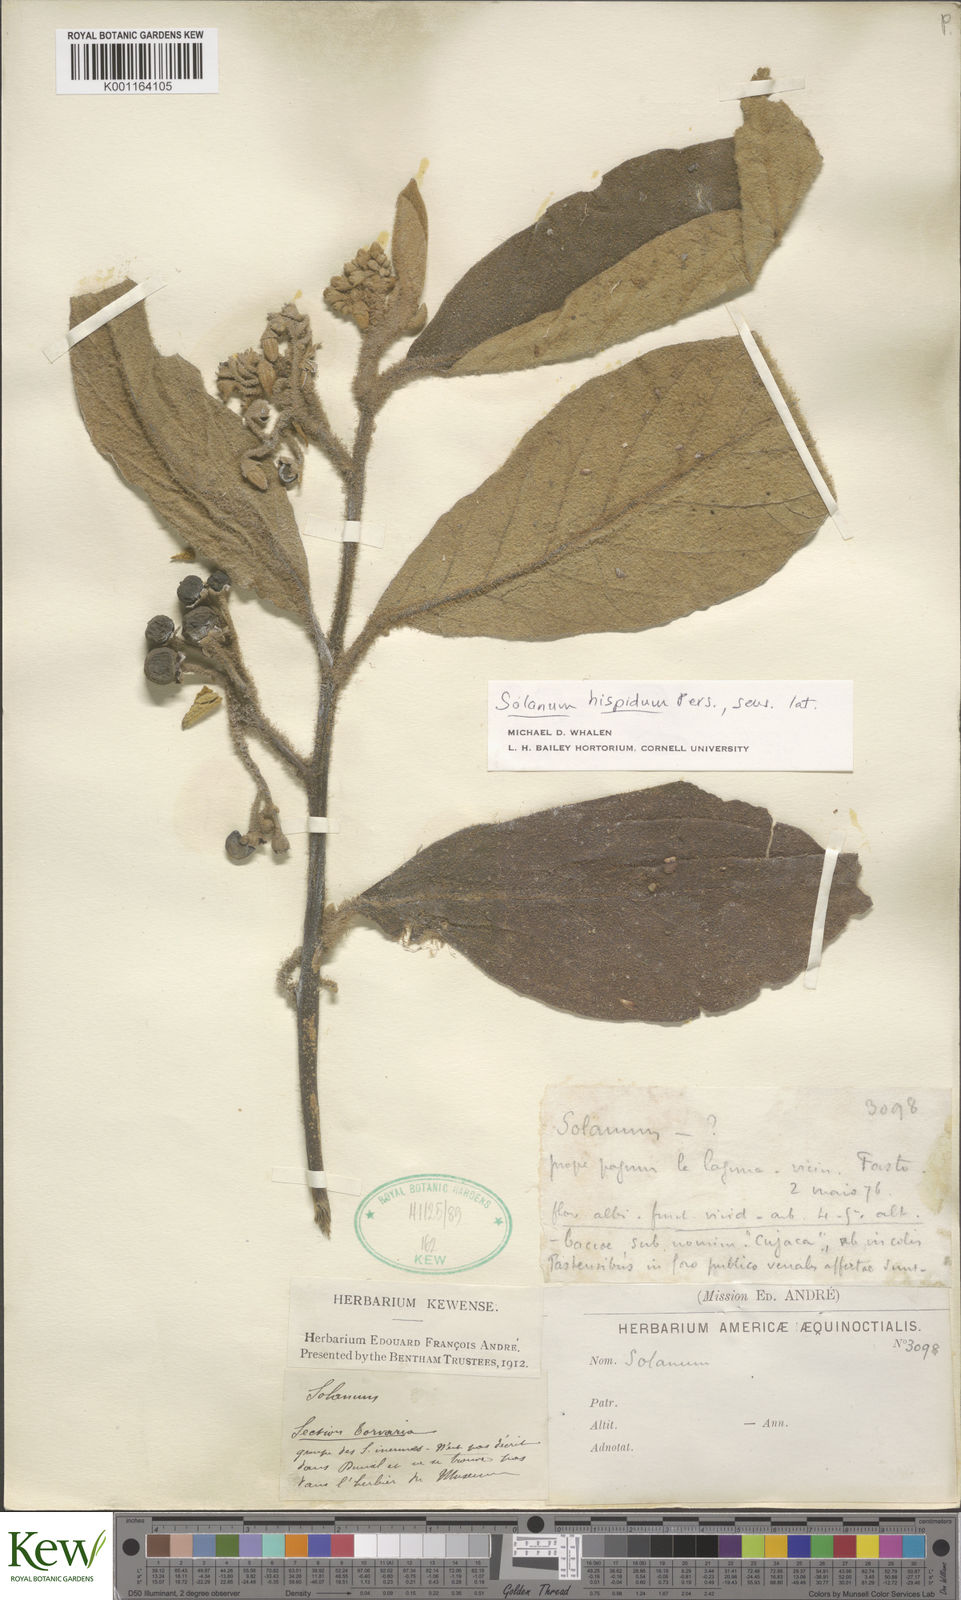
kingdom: Plantae
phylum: Tracheophyta
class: Magnoliopsida
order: Solanales
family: Solanaceae
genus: Solanum
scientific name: Solanum asperolanatum
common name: Devil's-fig
